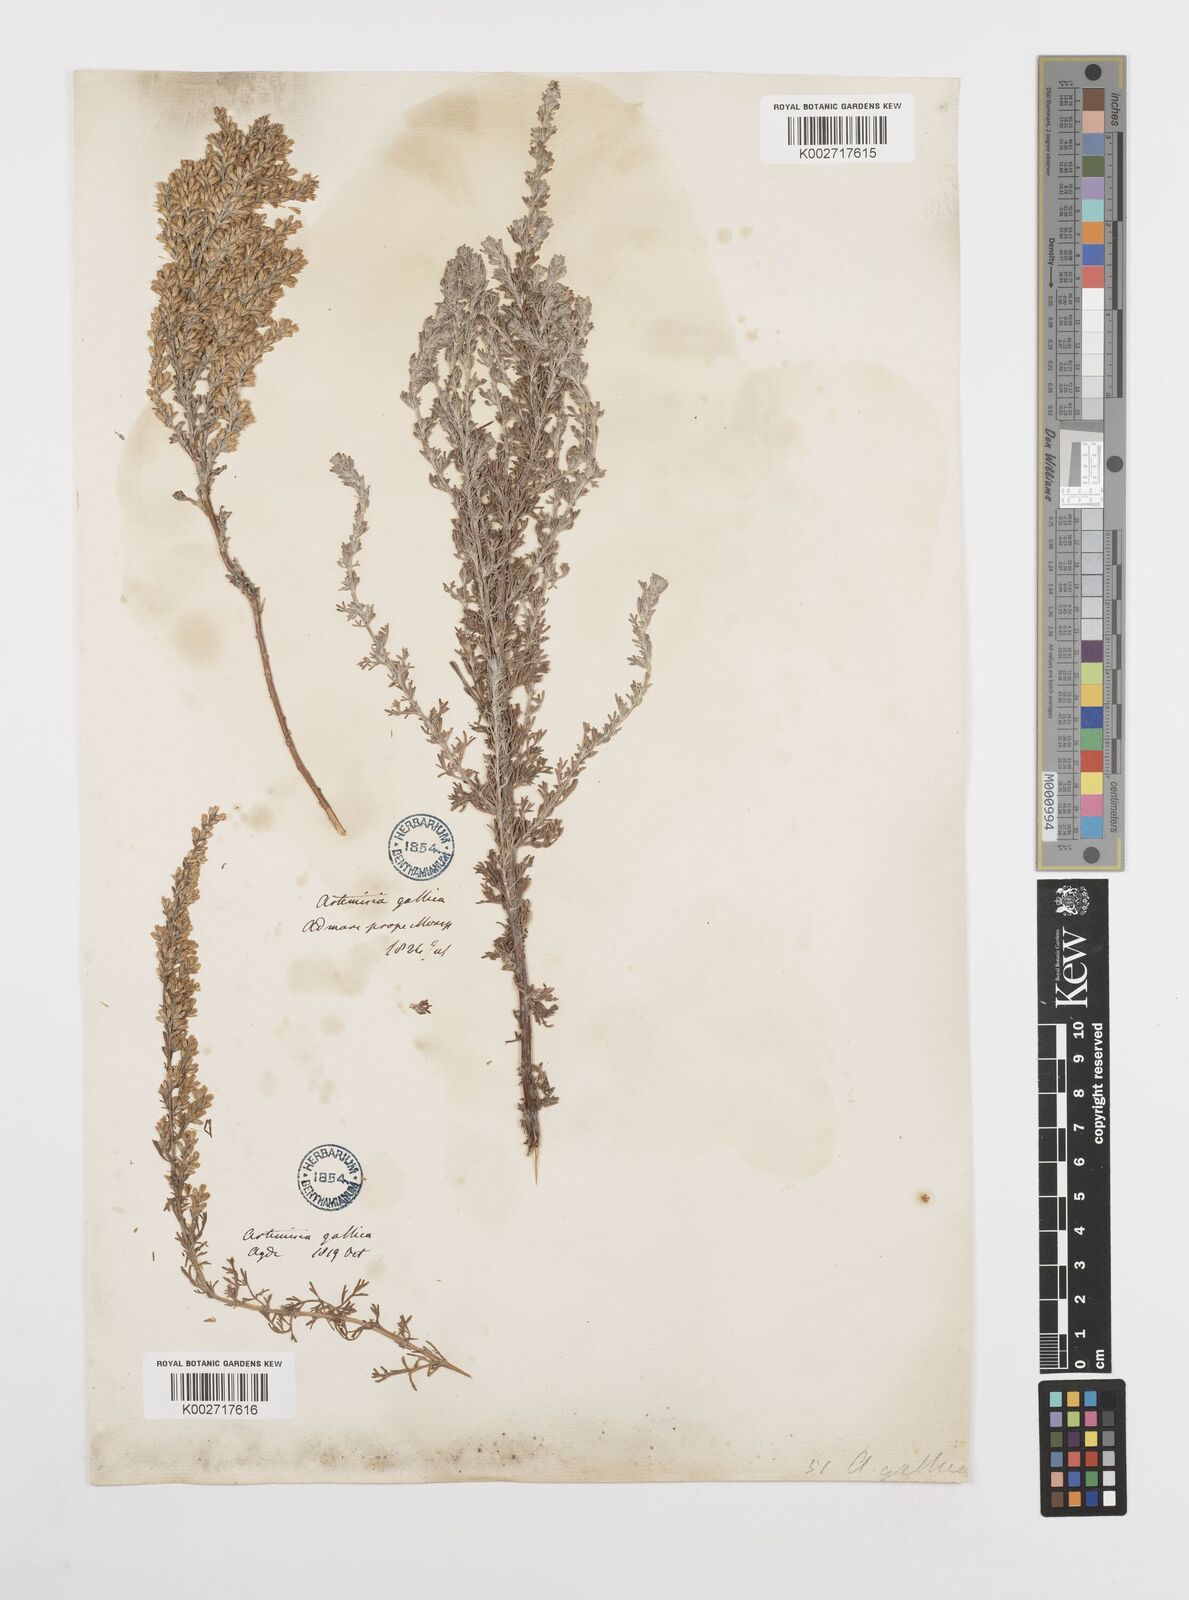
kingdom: Plantae
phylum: Tracheophyta
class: Magnoliopsida
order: Asterales
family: Asteraceae
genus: Artemisia
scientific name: Artemisia campestris
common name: Field wormwood
